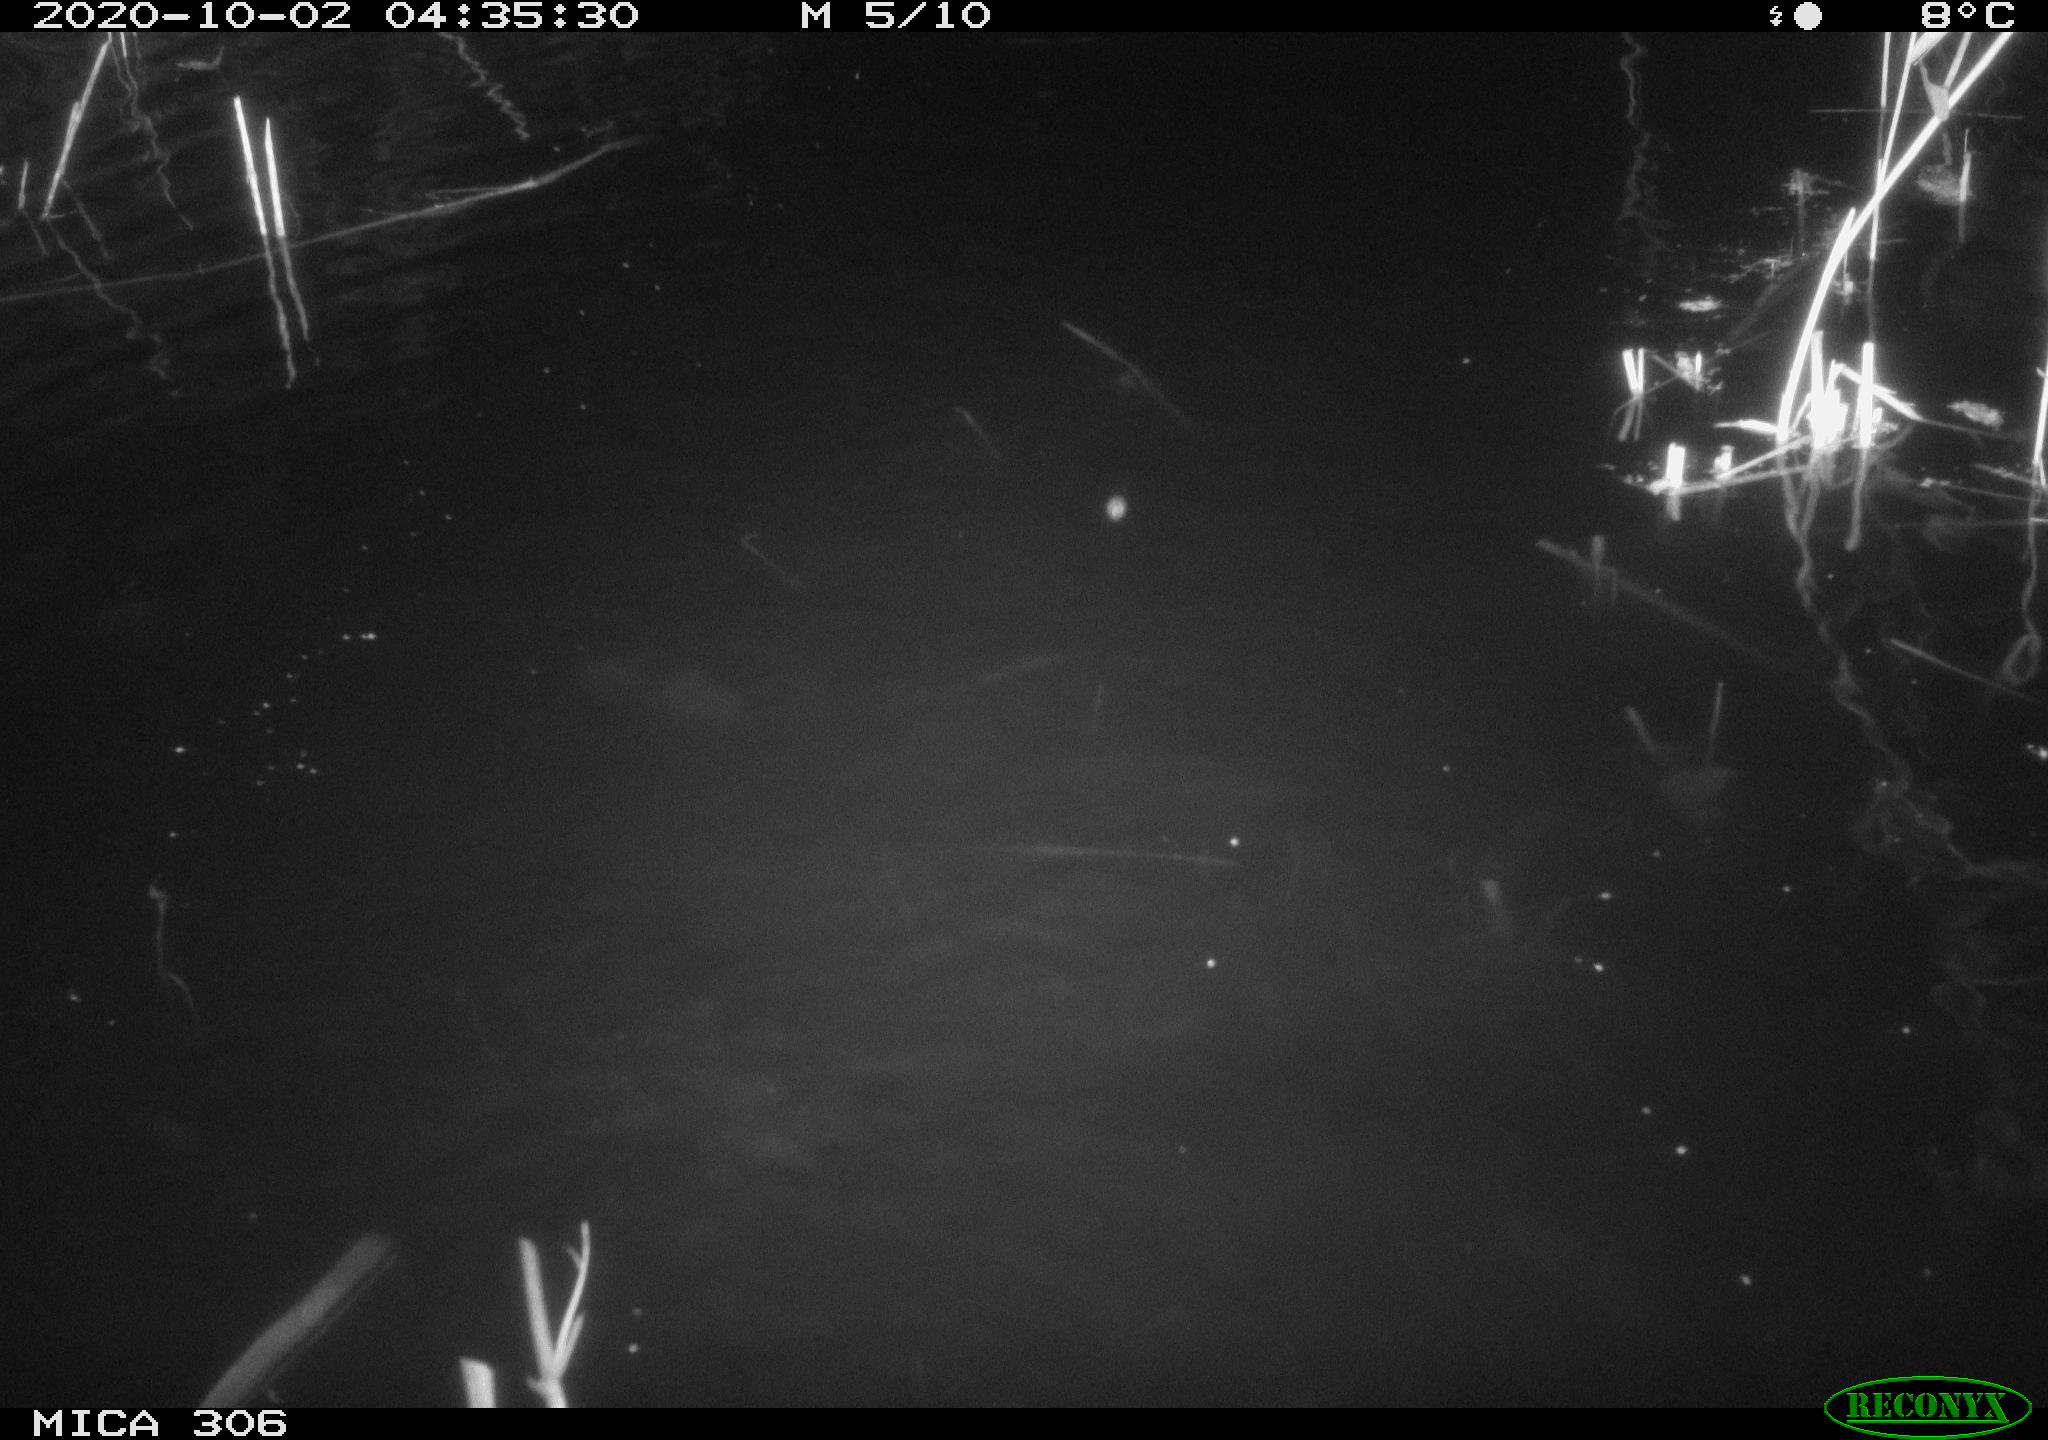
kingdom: Animalia
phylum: Chordata
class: Mammalia
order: Rodentia
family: Cricetidae
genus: Ondatra
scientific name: Ondatra zibethicus
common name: Muskrat
